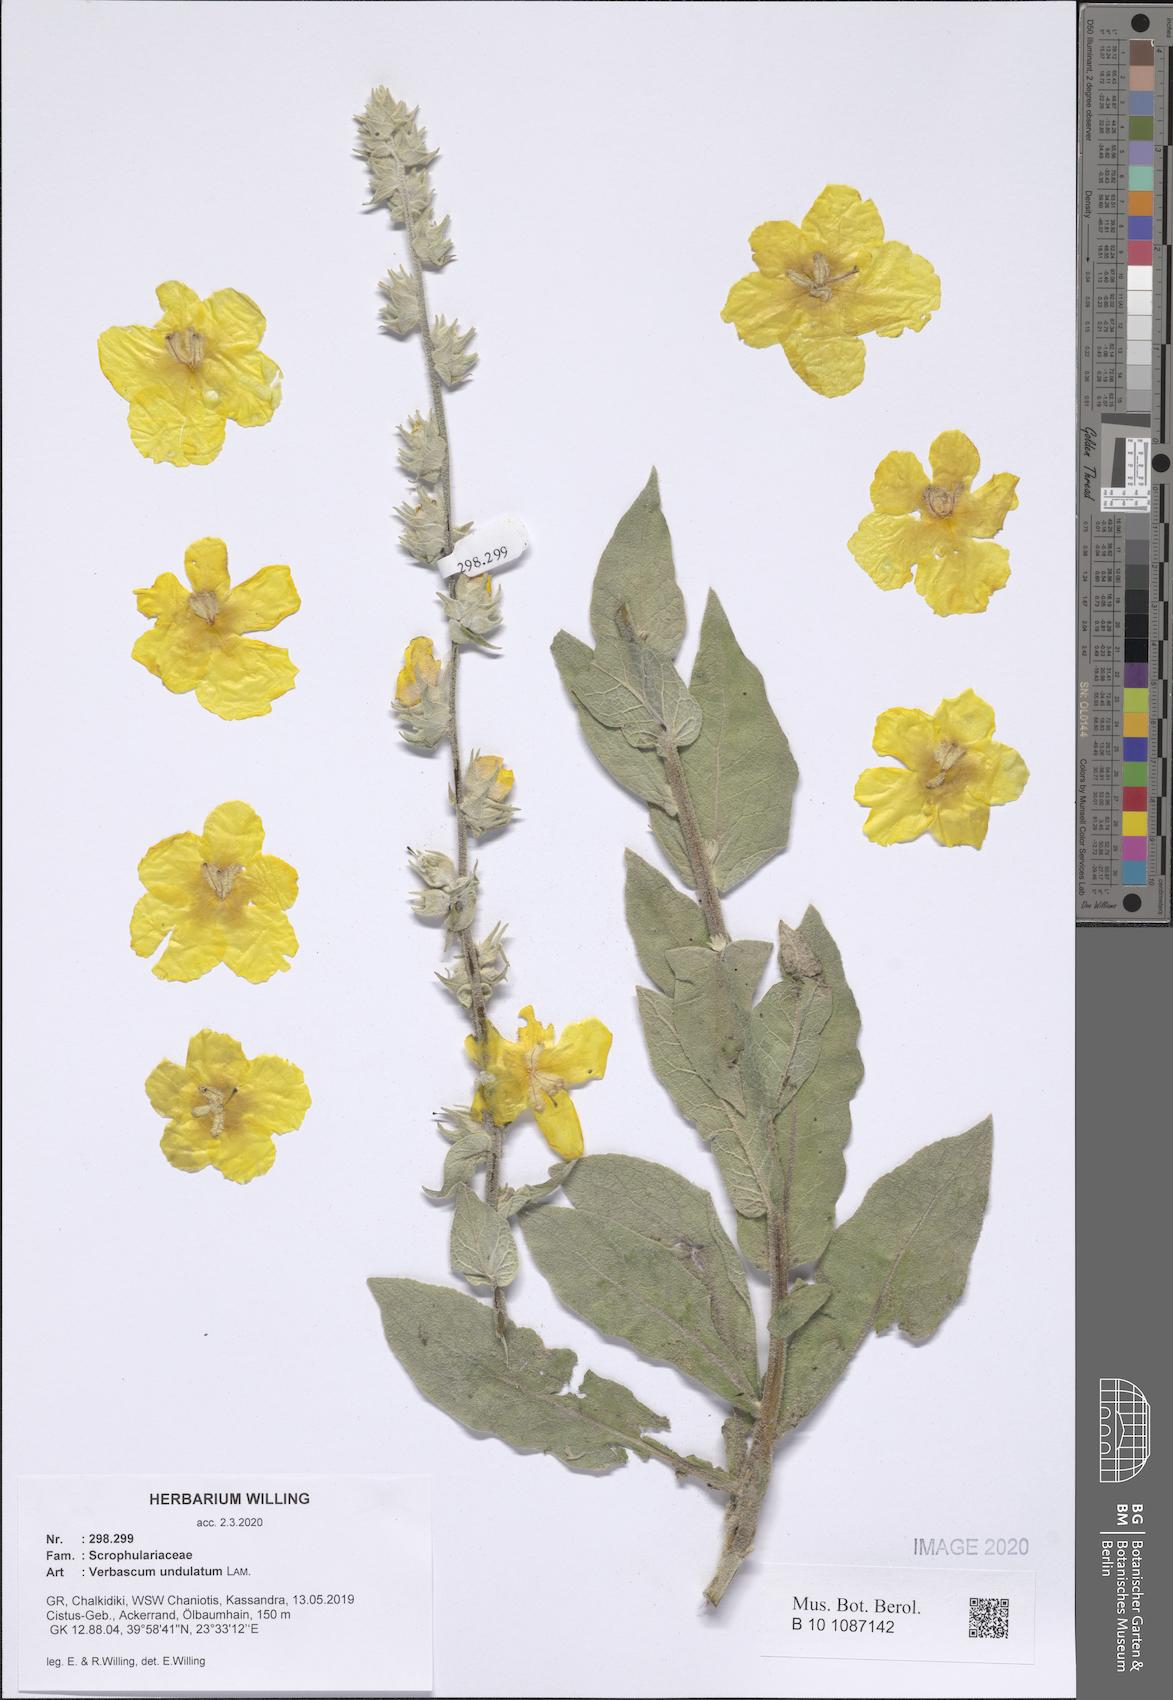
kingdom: Plantae
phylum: Tracheophyta
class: Magnoliopsida
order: Lamiales
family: Scrophulariaceae
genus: Verbascum
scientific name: Verbascum undulatum
